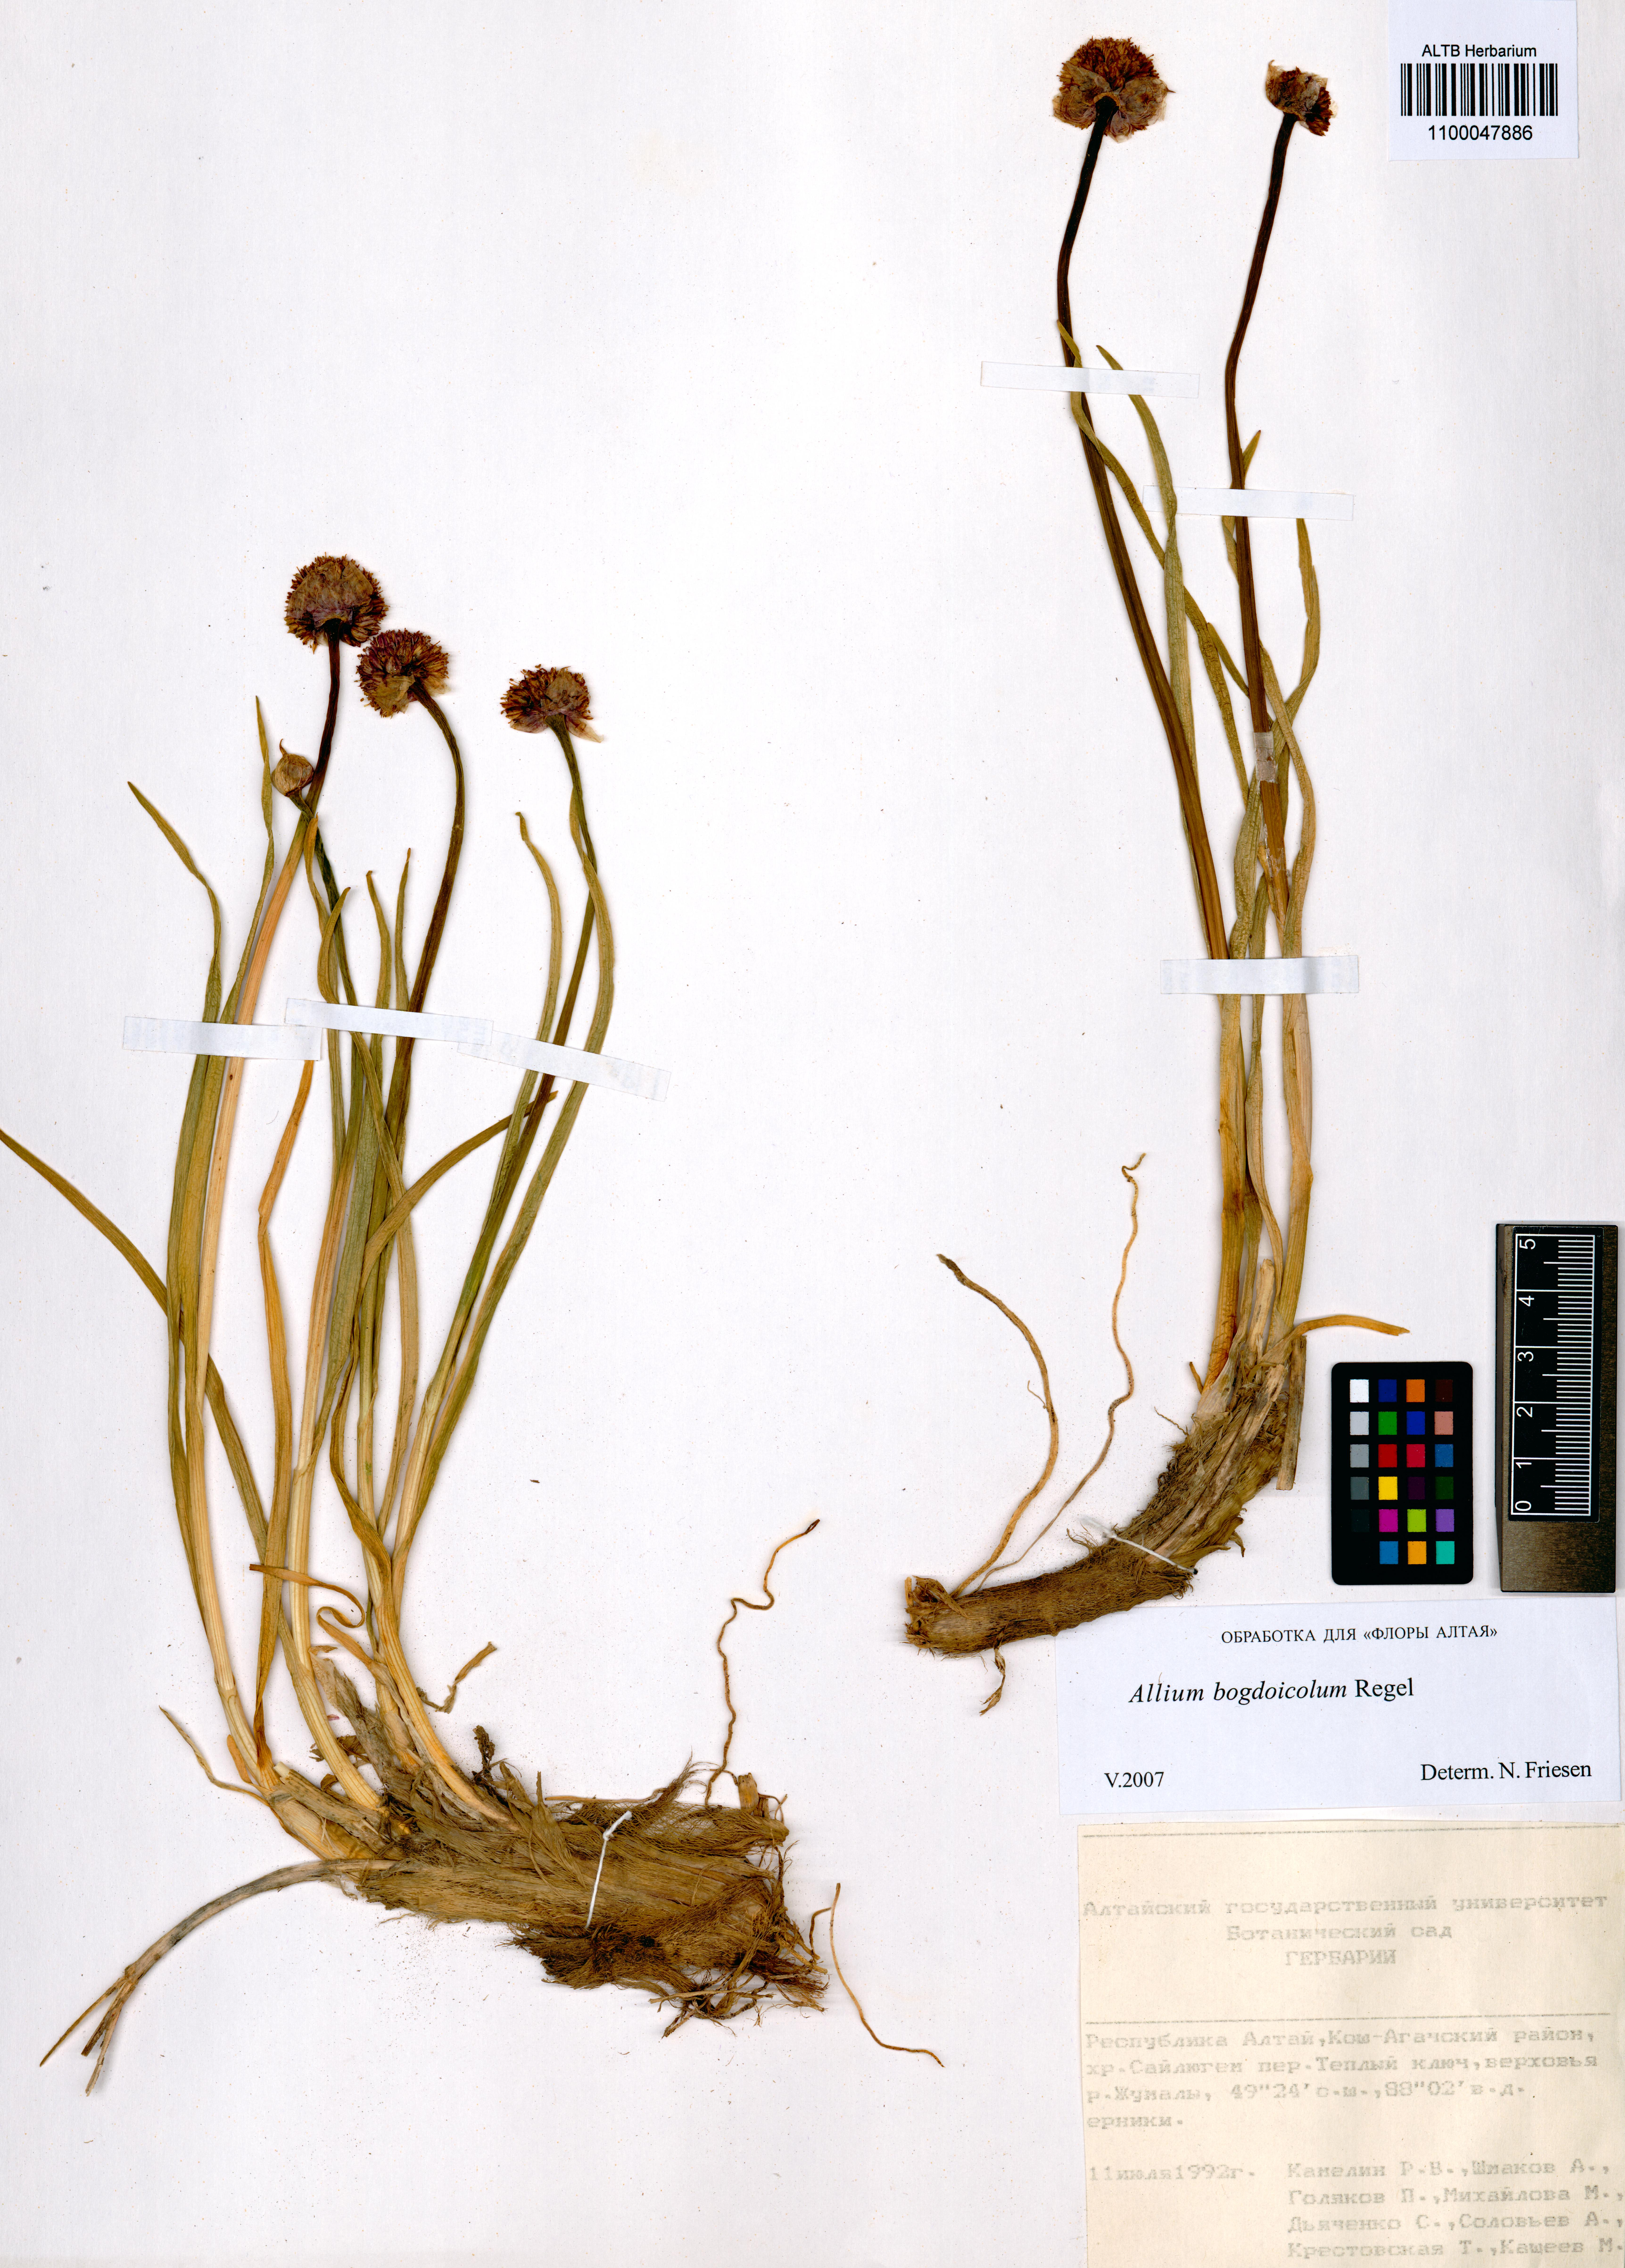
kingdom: Plantae
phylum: Tracheophyta
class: Liliopsida
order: Asparagales
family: Amaryllidaceae
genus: Allium
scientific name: Allium schrenkii
